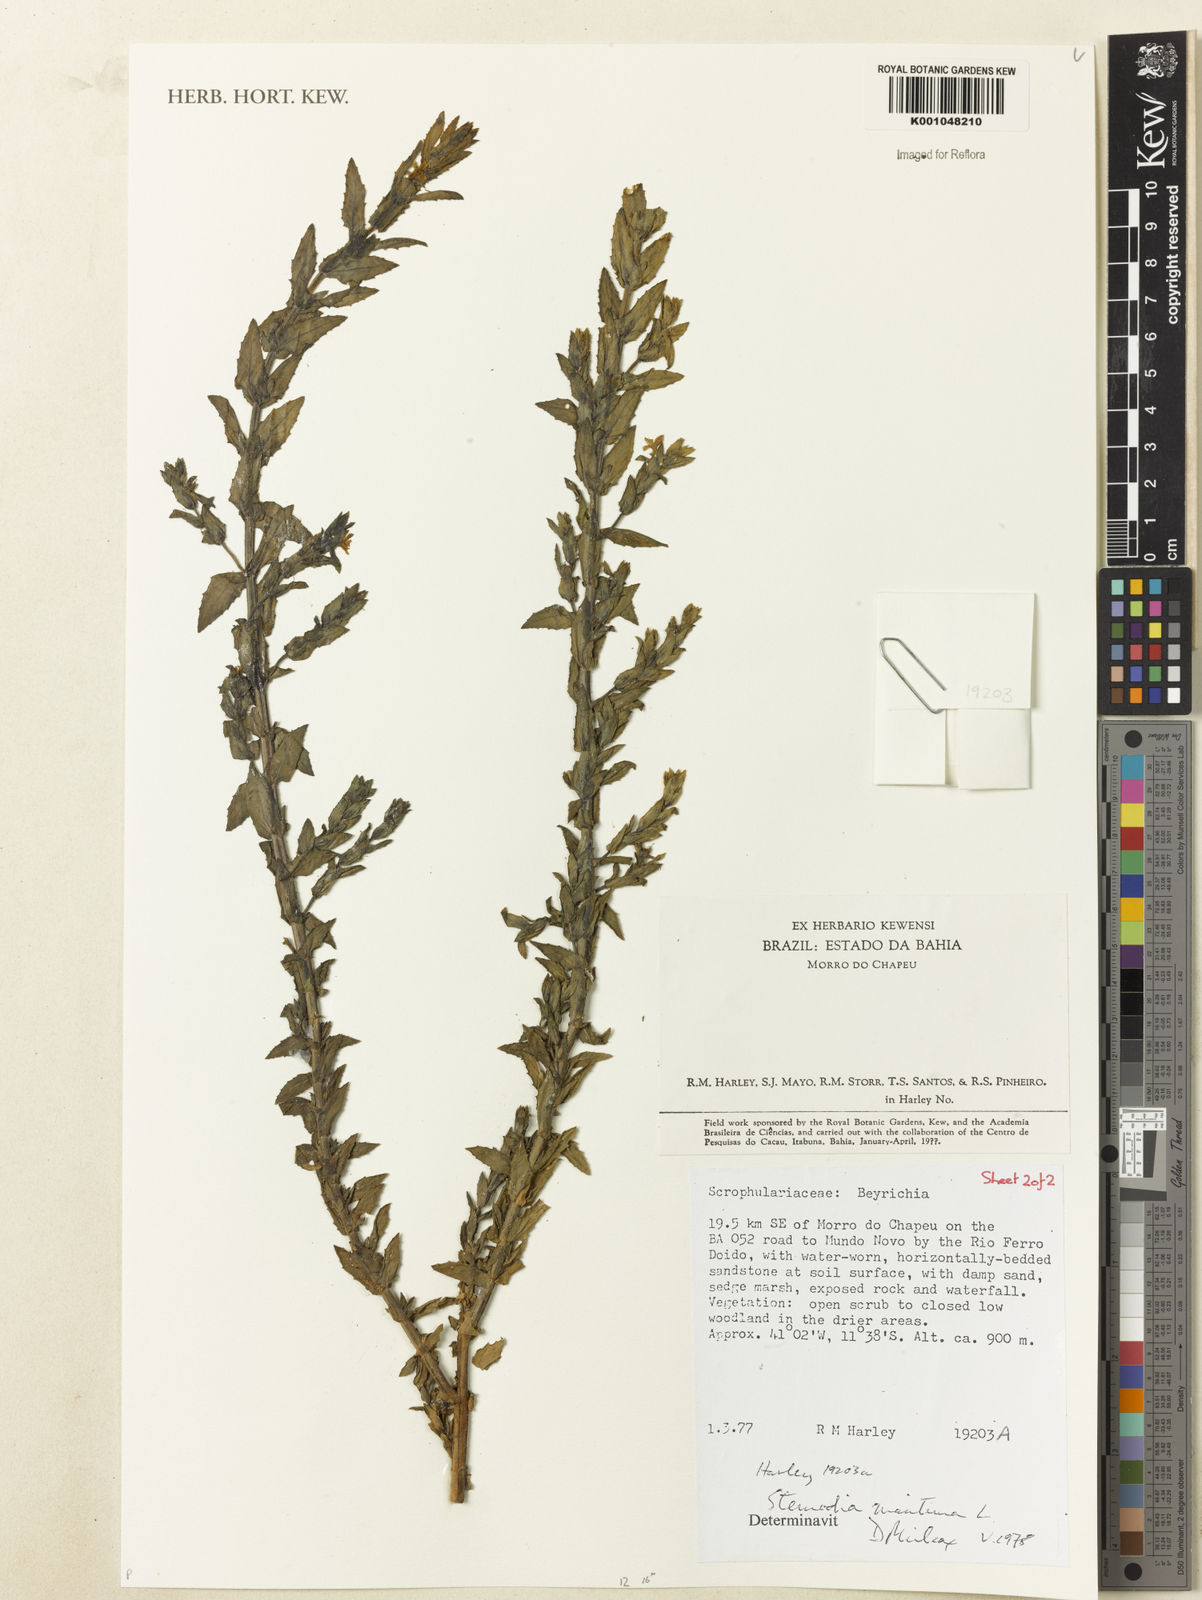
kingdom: Plantae
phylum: Tracheophyta
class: Magnoliopsida
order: Lamiales
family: Plantaginaceae
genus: Stemodia
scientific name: Stemodia maritima
